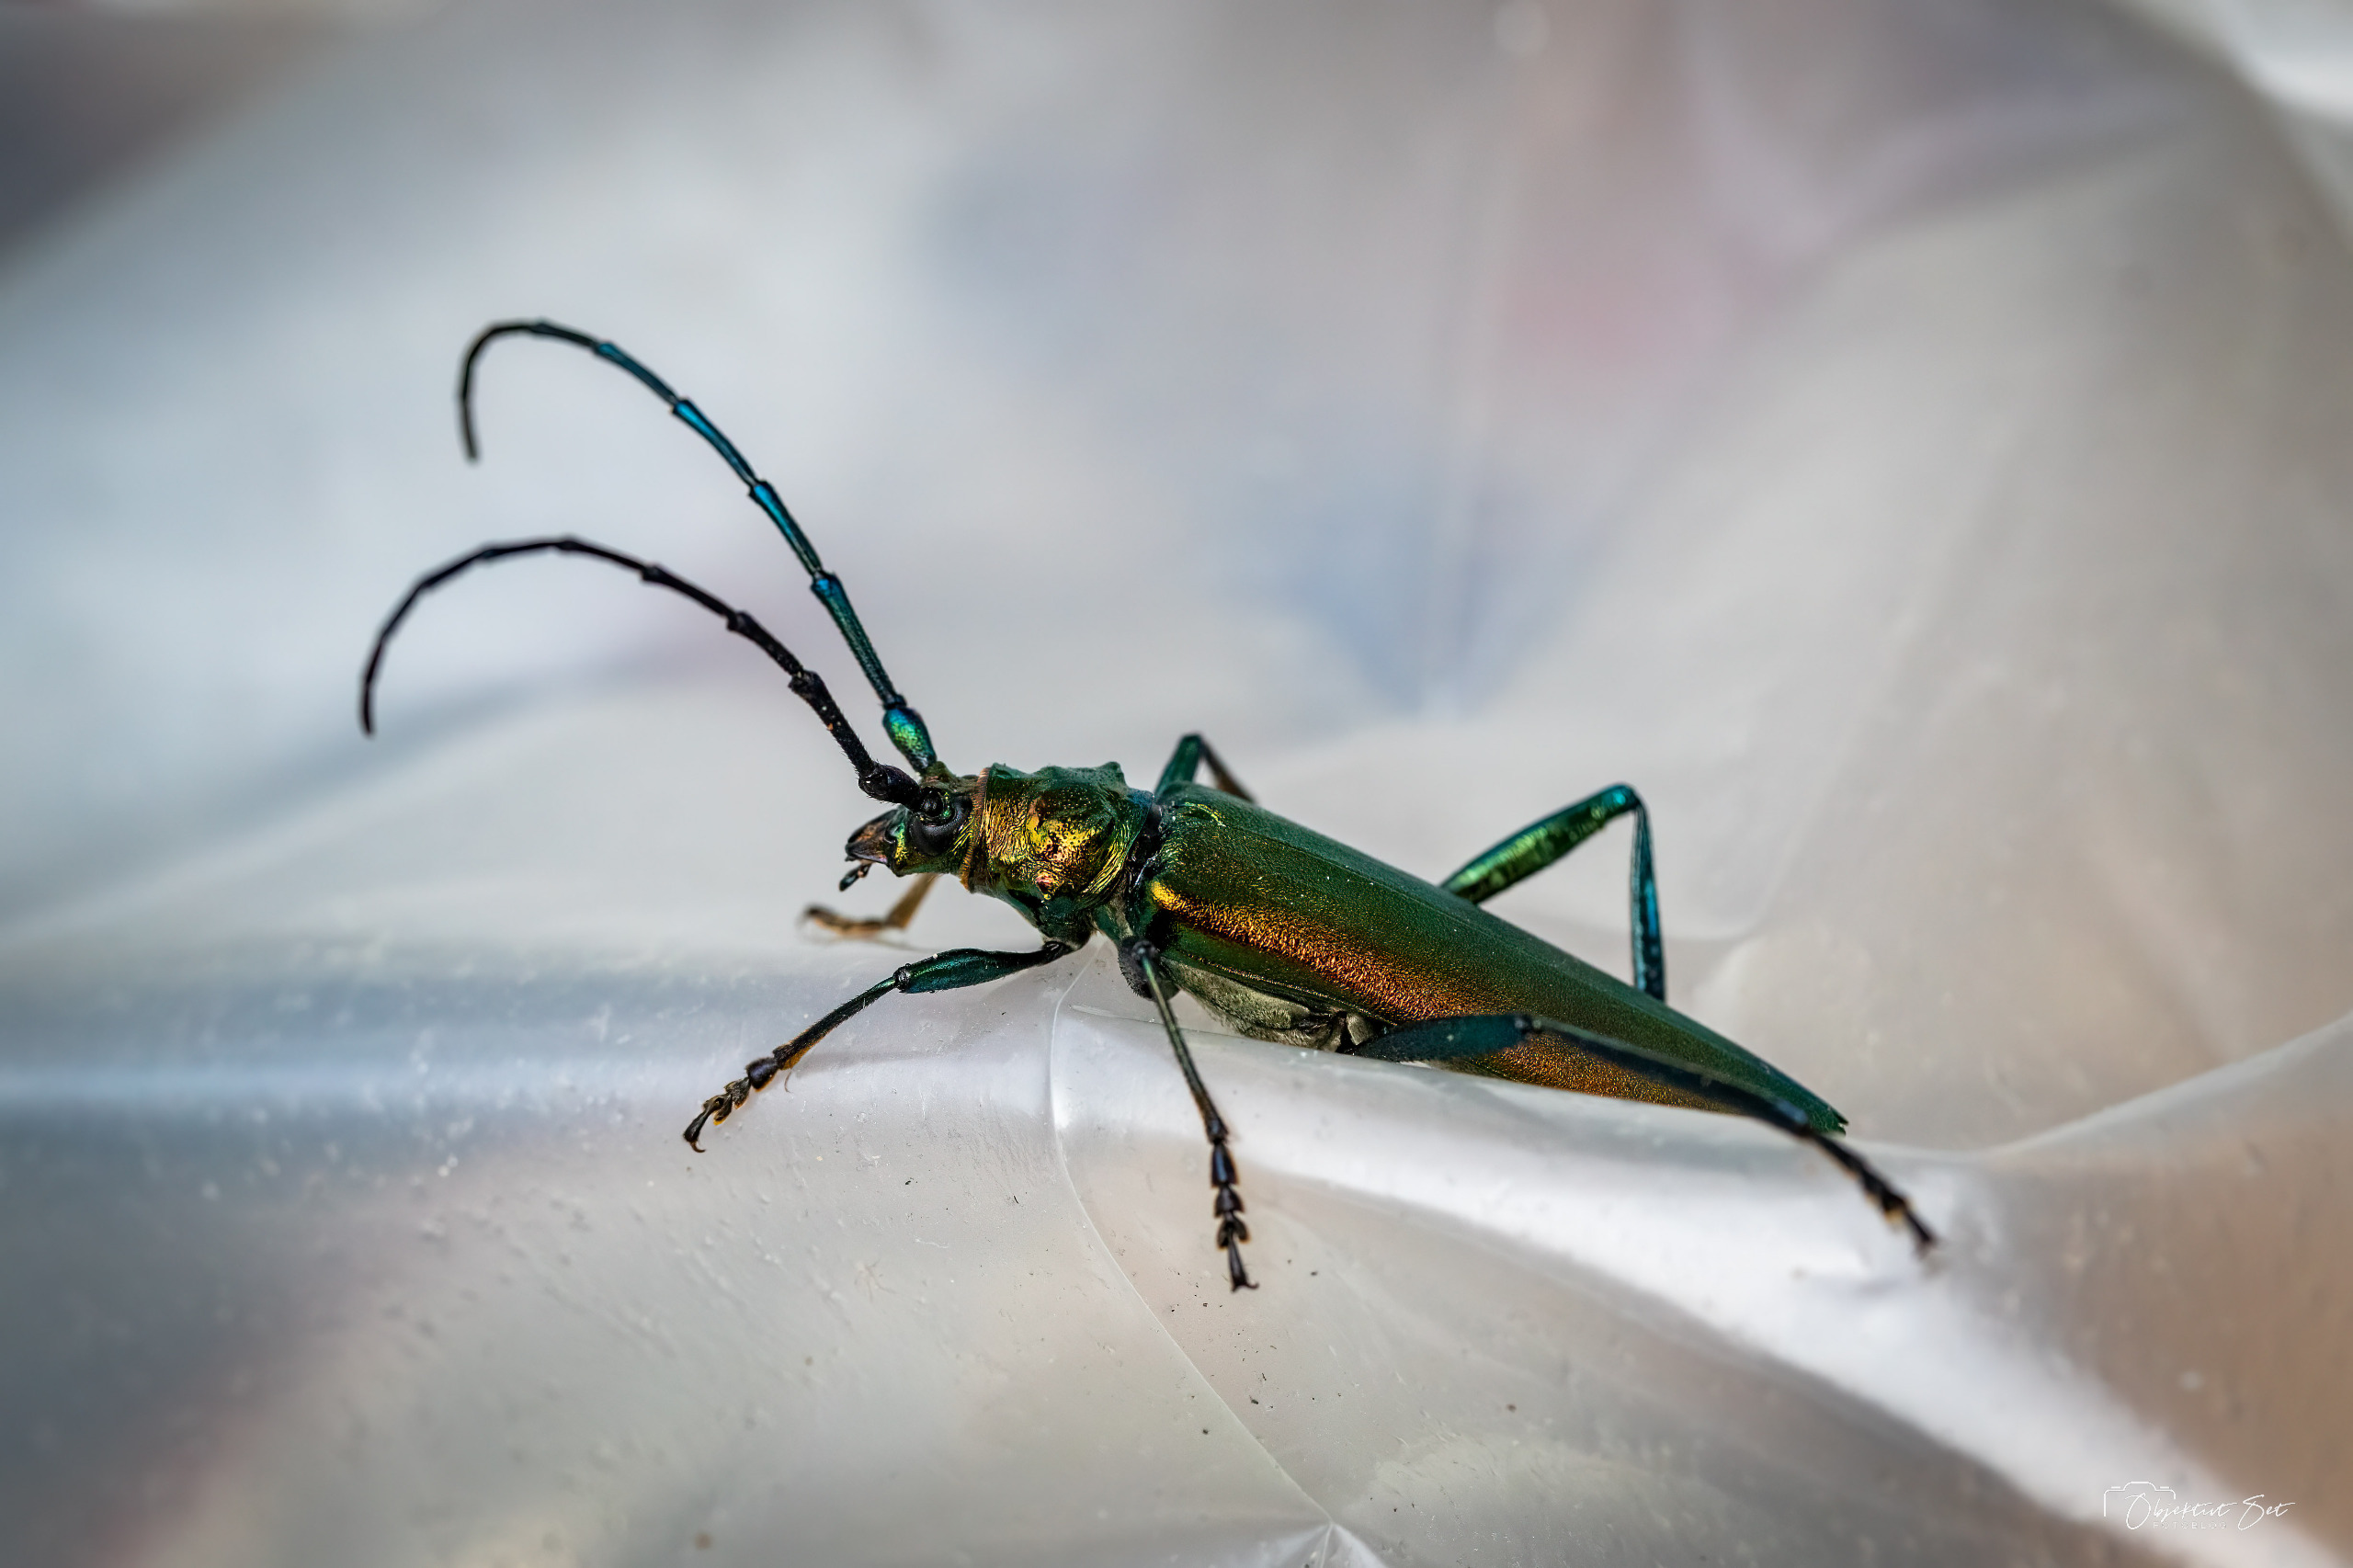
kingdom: Animalia
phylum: Arthropoda
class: Insecta
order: Coleoptera
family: Cerambycidae
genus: Aromia
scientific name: Aromia moschata
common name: Moskusbuk
